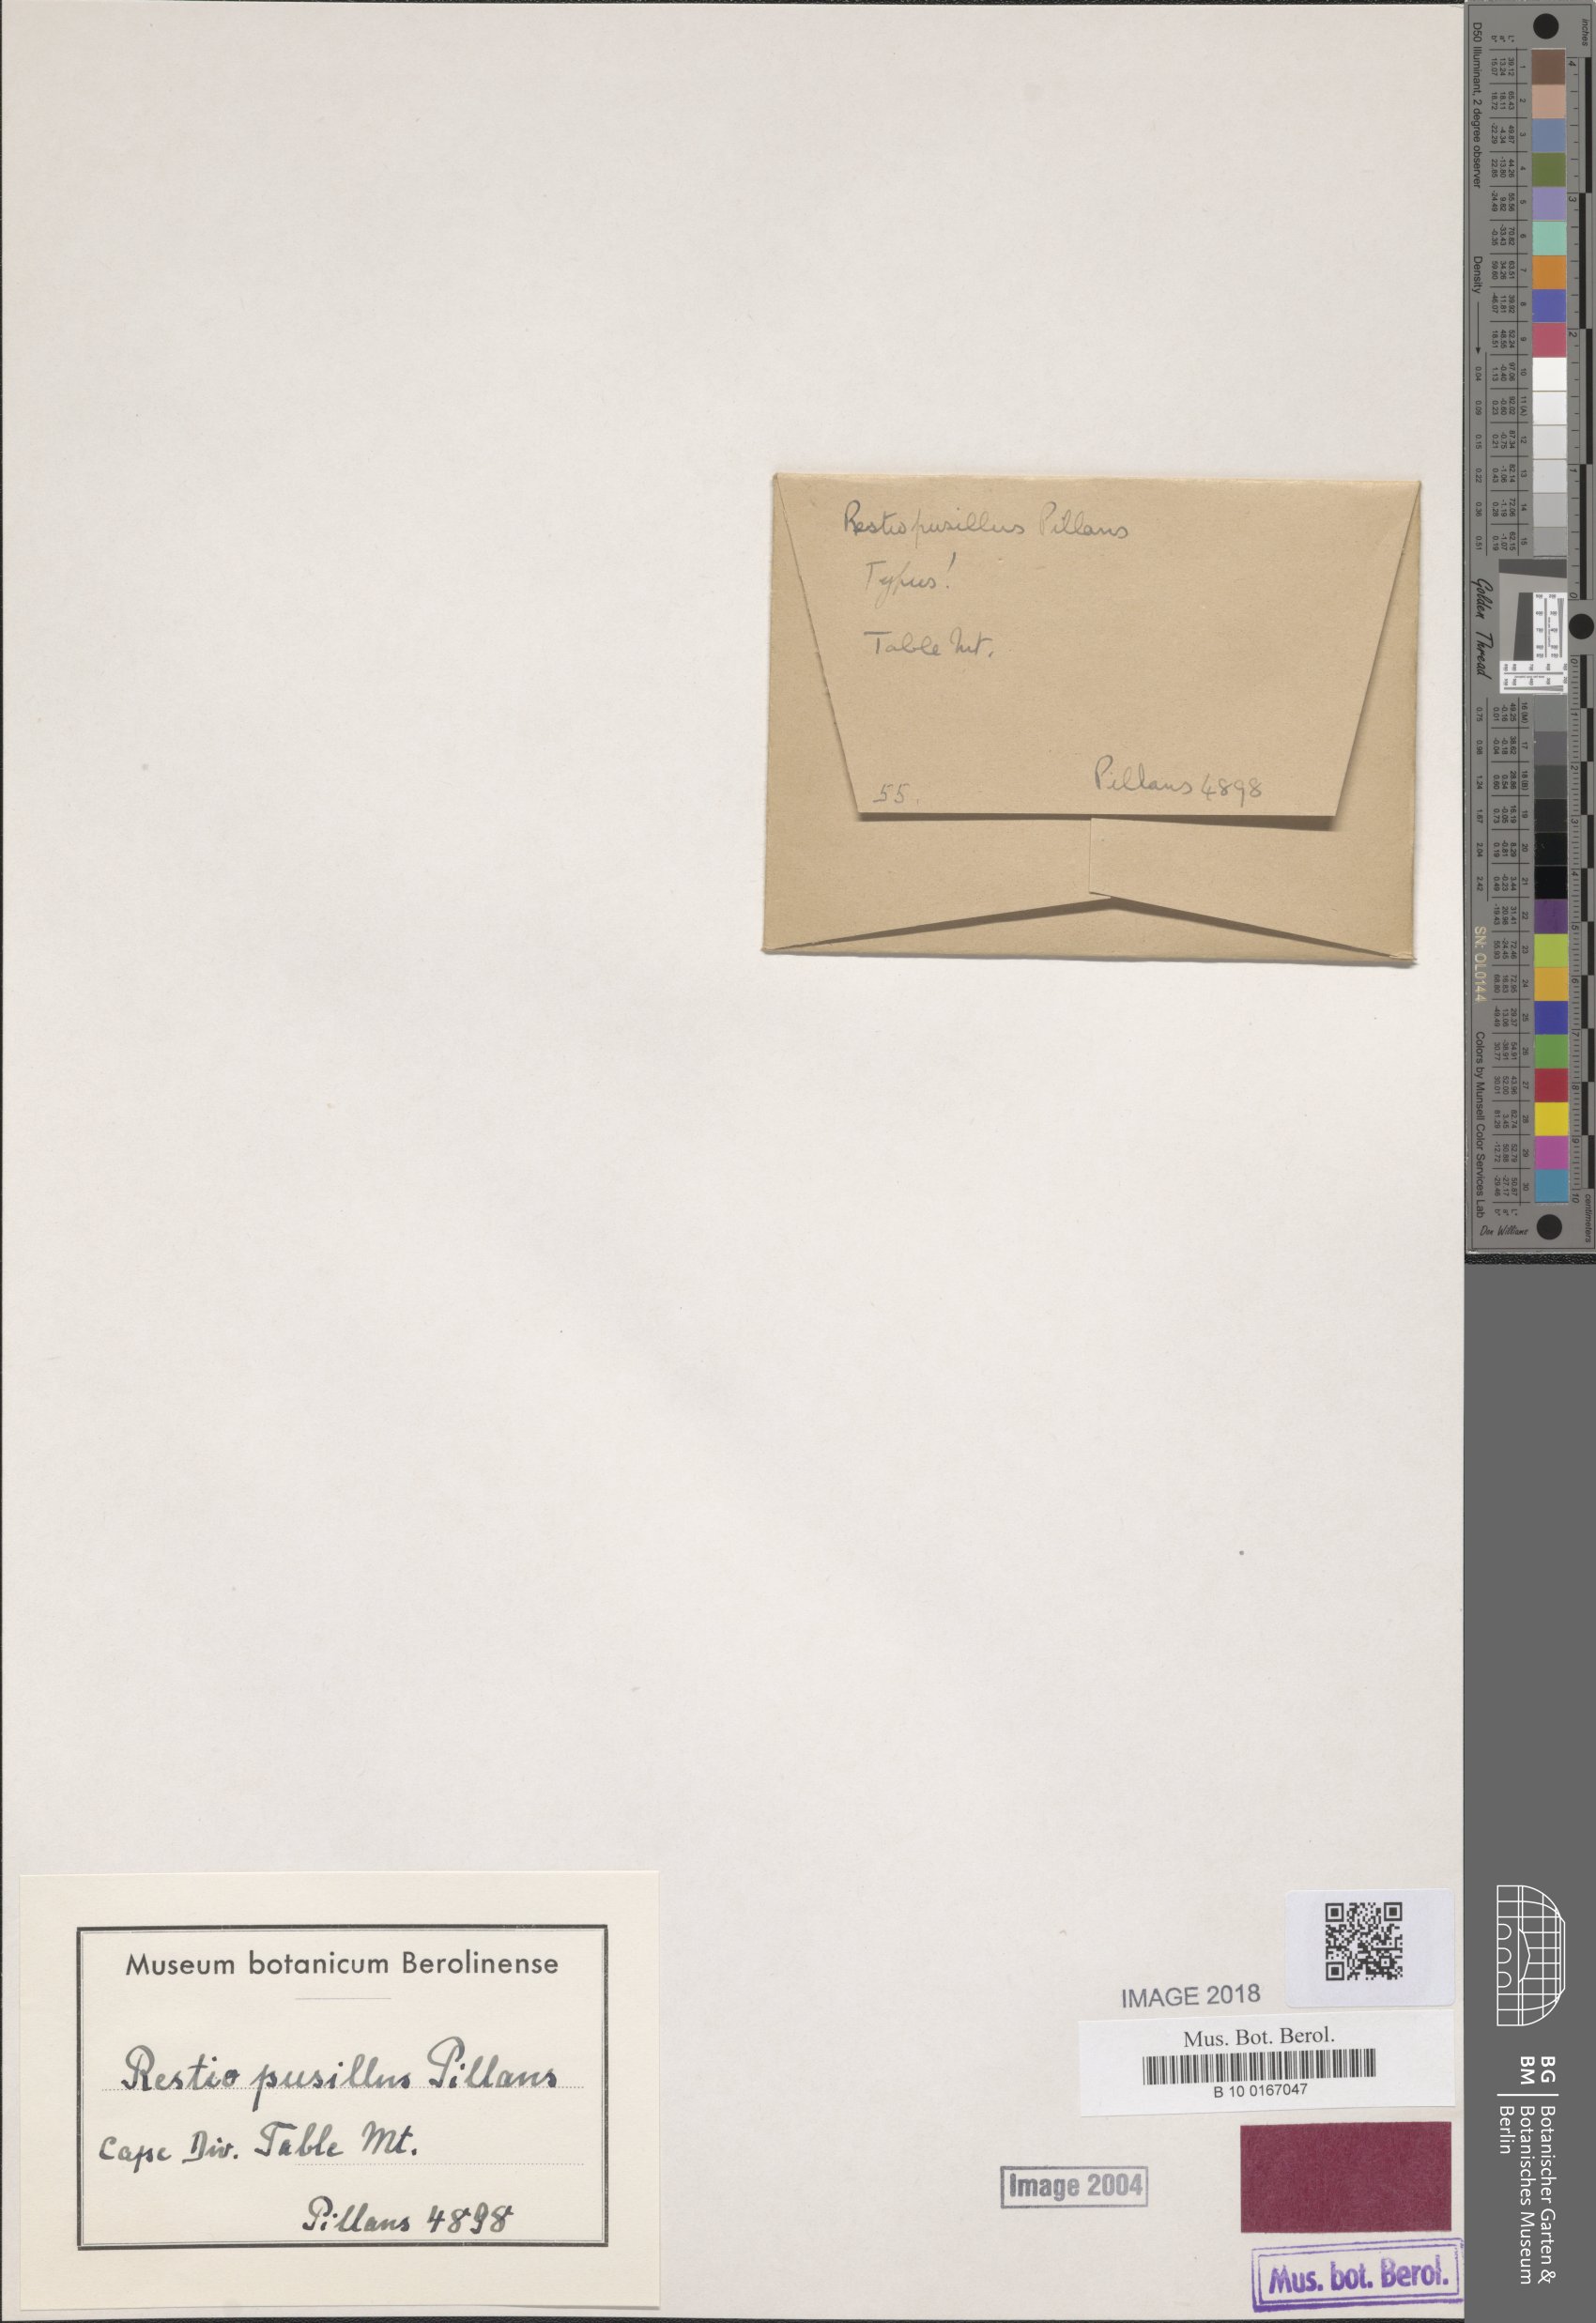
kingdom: Plantae
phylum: Tracheophyta
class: Liliopsida
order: Poales
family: Restionaceae
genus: Restio
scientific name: Restio leptostachyus
